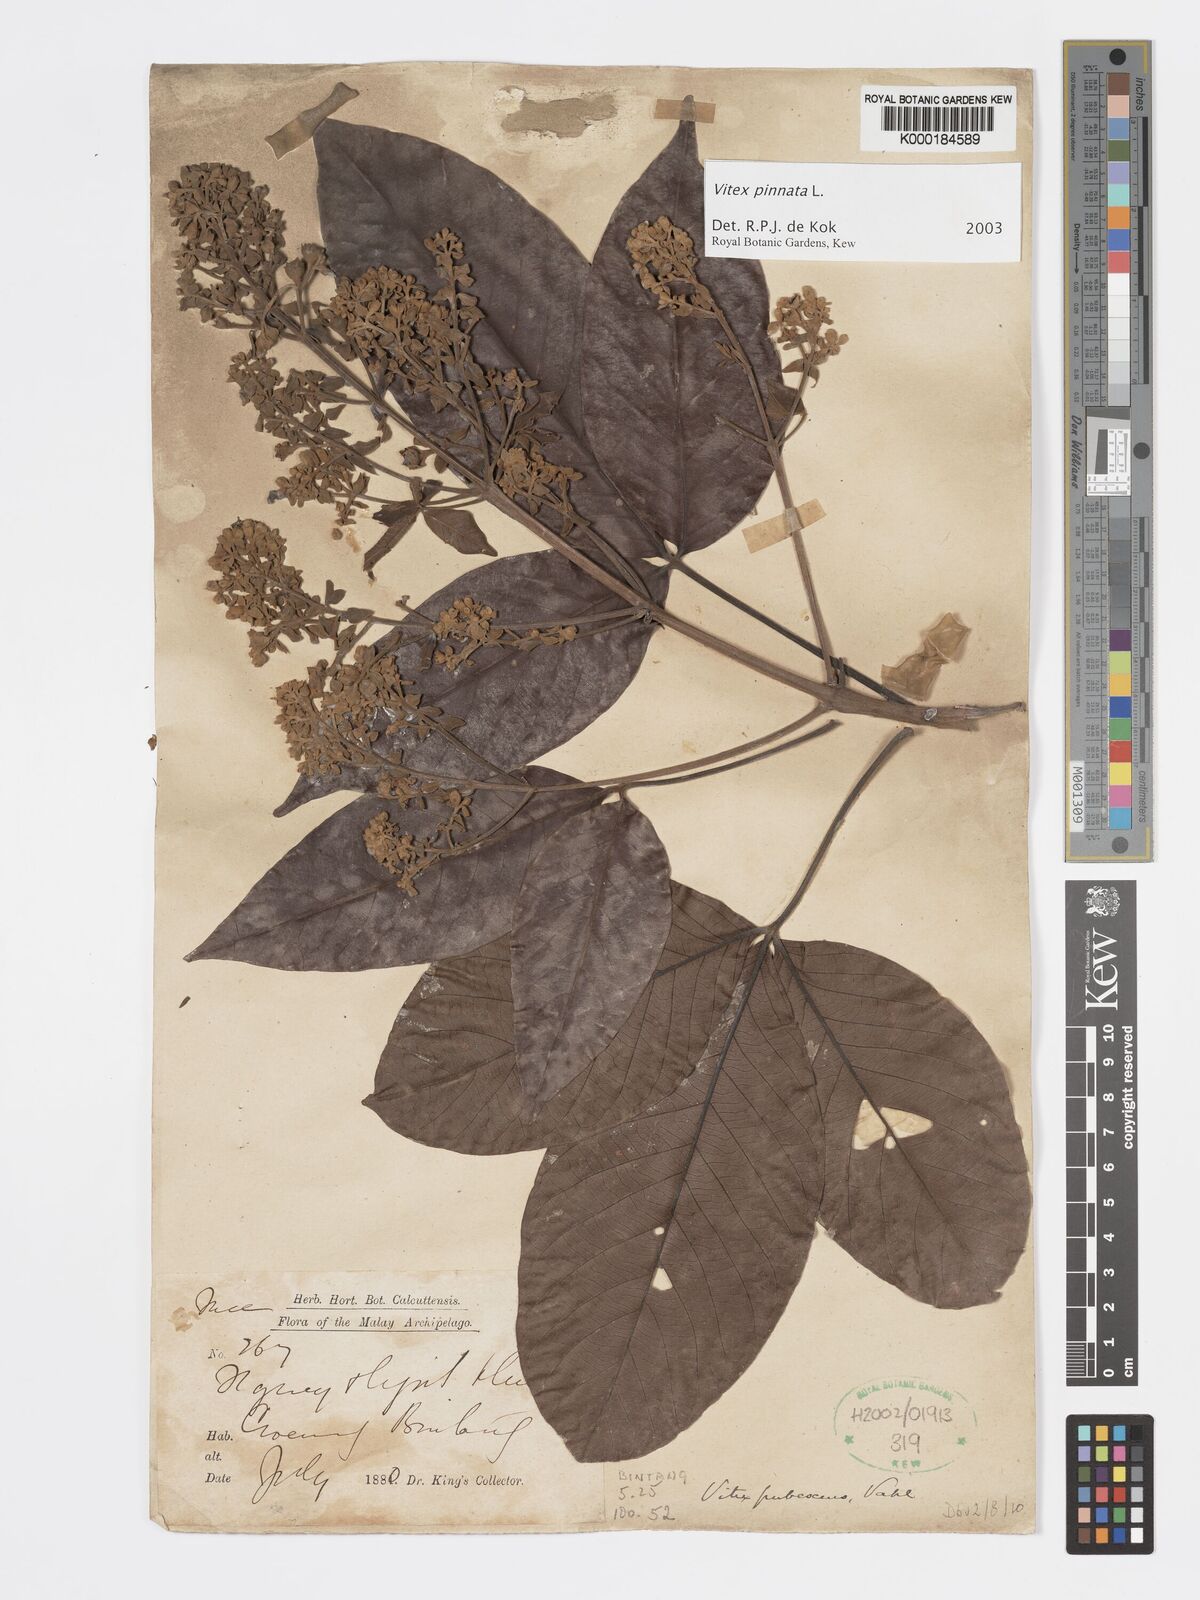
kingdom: Plantae
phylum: Tracheophyta
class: Magnoliopsida
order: Lamiales
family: Lamiaceae
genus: Vitex
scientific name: Vitex pinnata
